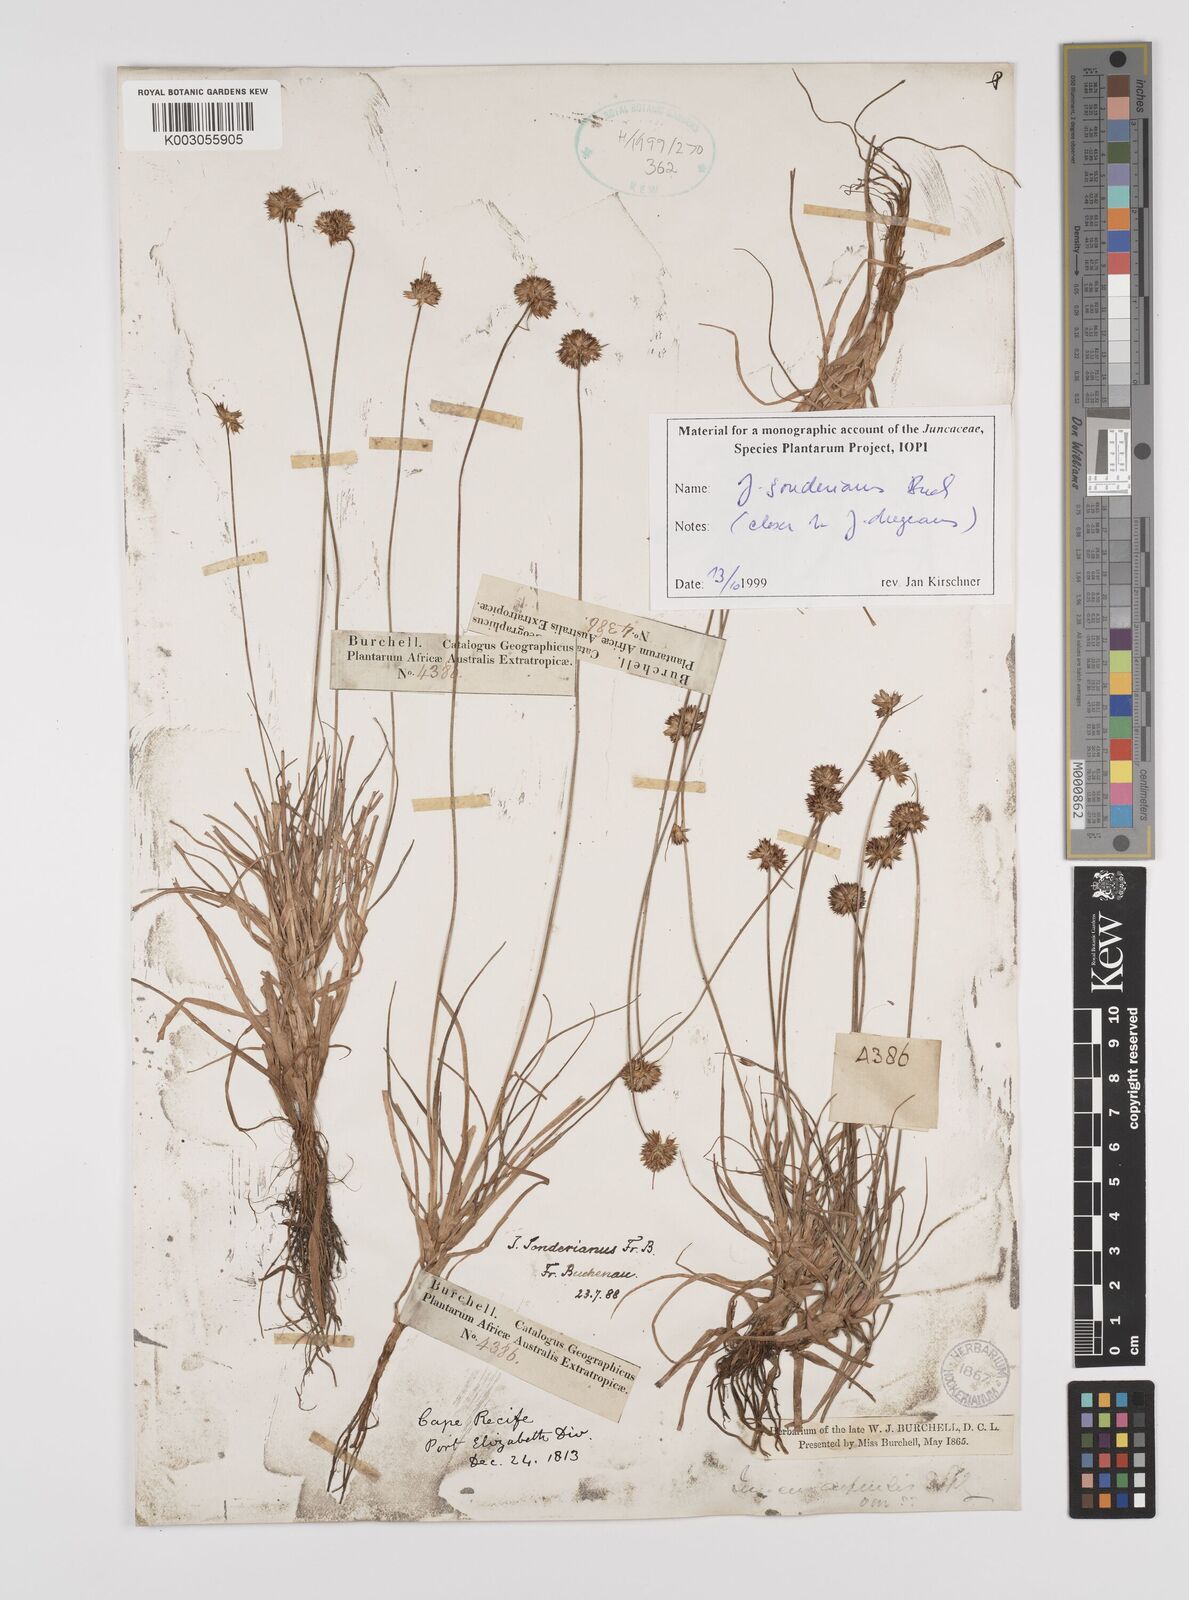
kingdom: Plantae
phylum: Tracheophyta
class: Liliopsida
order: Poales
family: Juncaceae
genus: Juncus
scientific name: Juncus sonderianus
